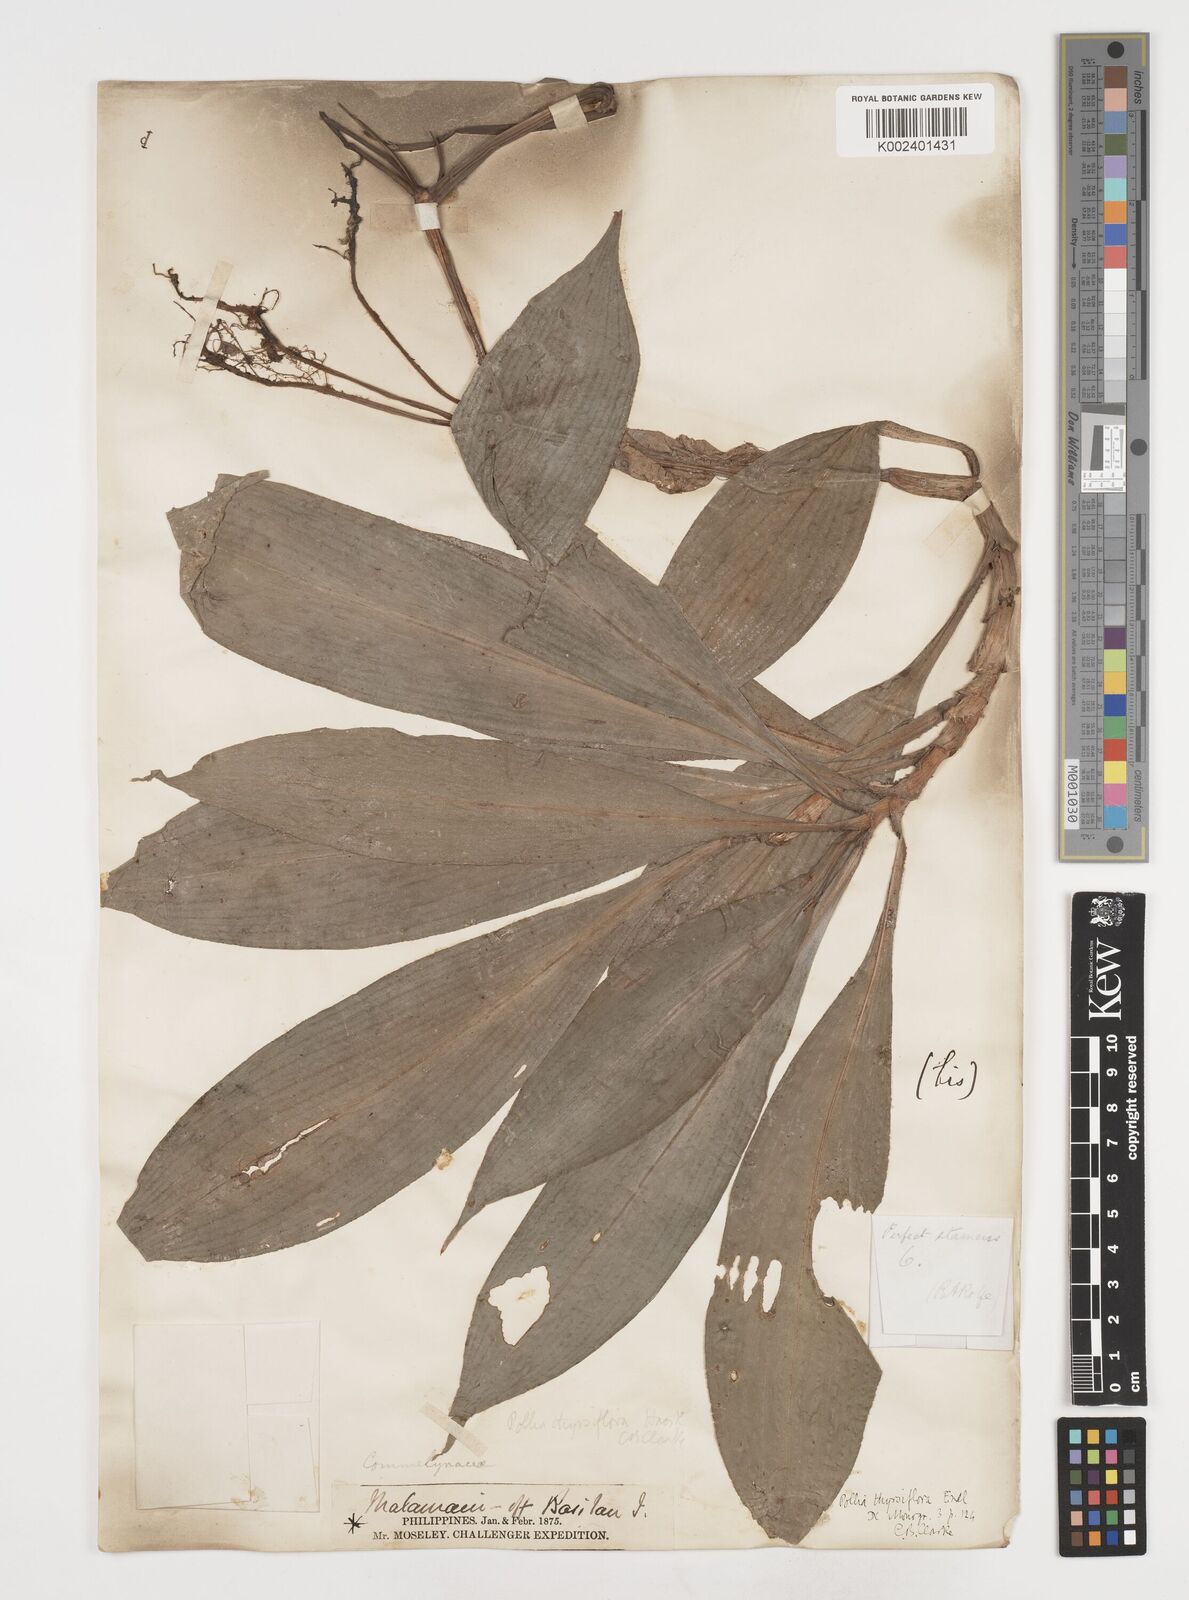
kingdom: Plantae
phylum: Tracheophyta
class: Liliopsida
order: Commelinales
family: Commelinaceae
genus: Pollia
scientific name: Pollia thyrsiflora
